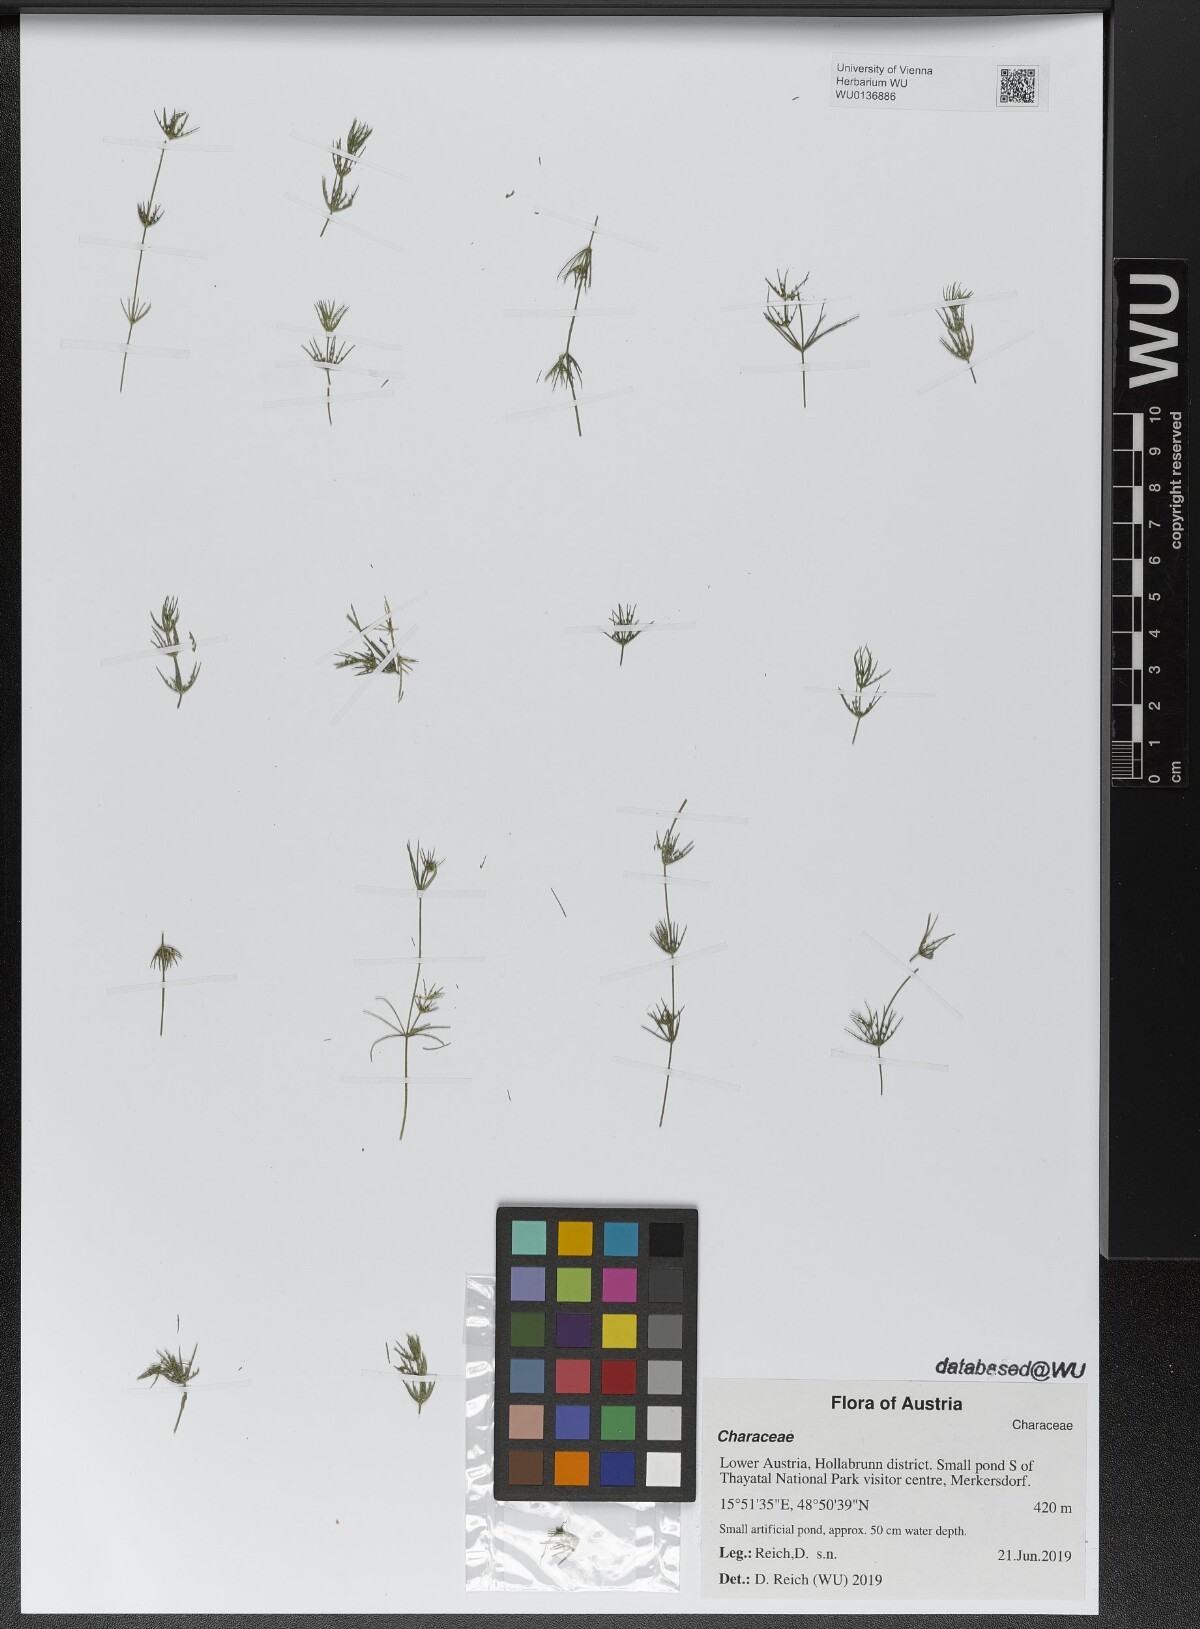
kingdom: Plantae
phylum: Charophyta
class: Charophyceae
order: Charales
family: Characeae
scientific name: Characeae
